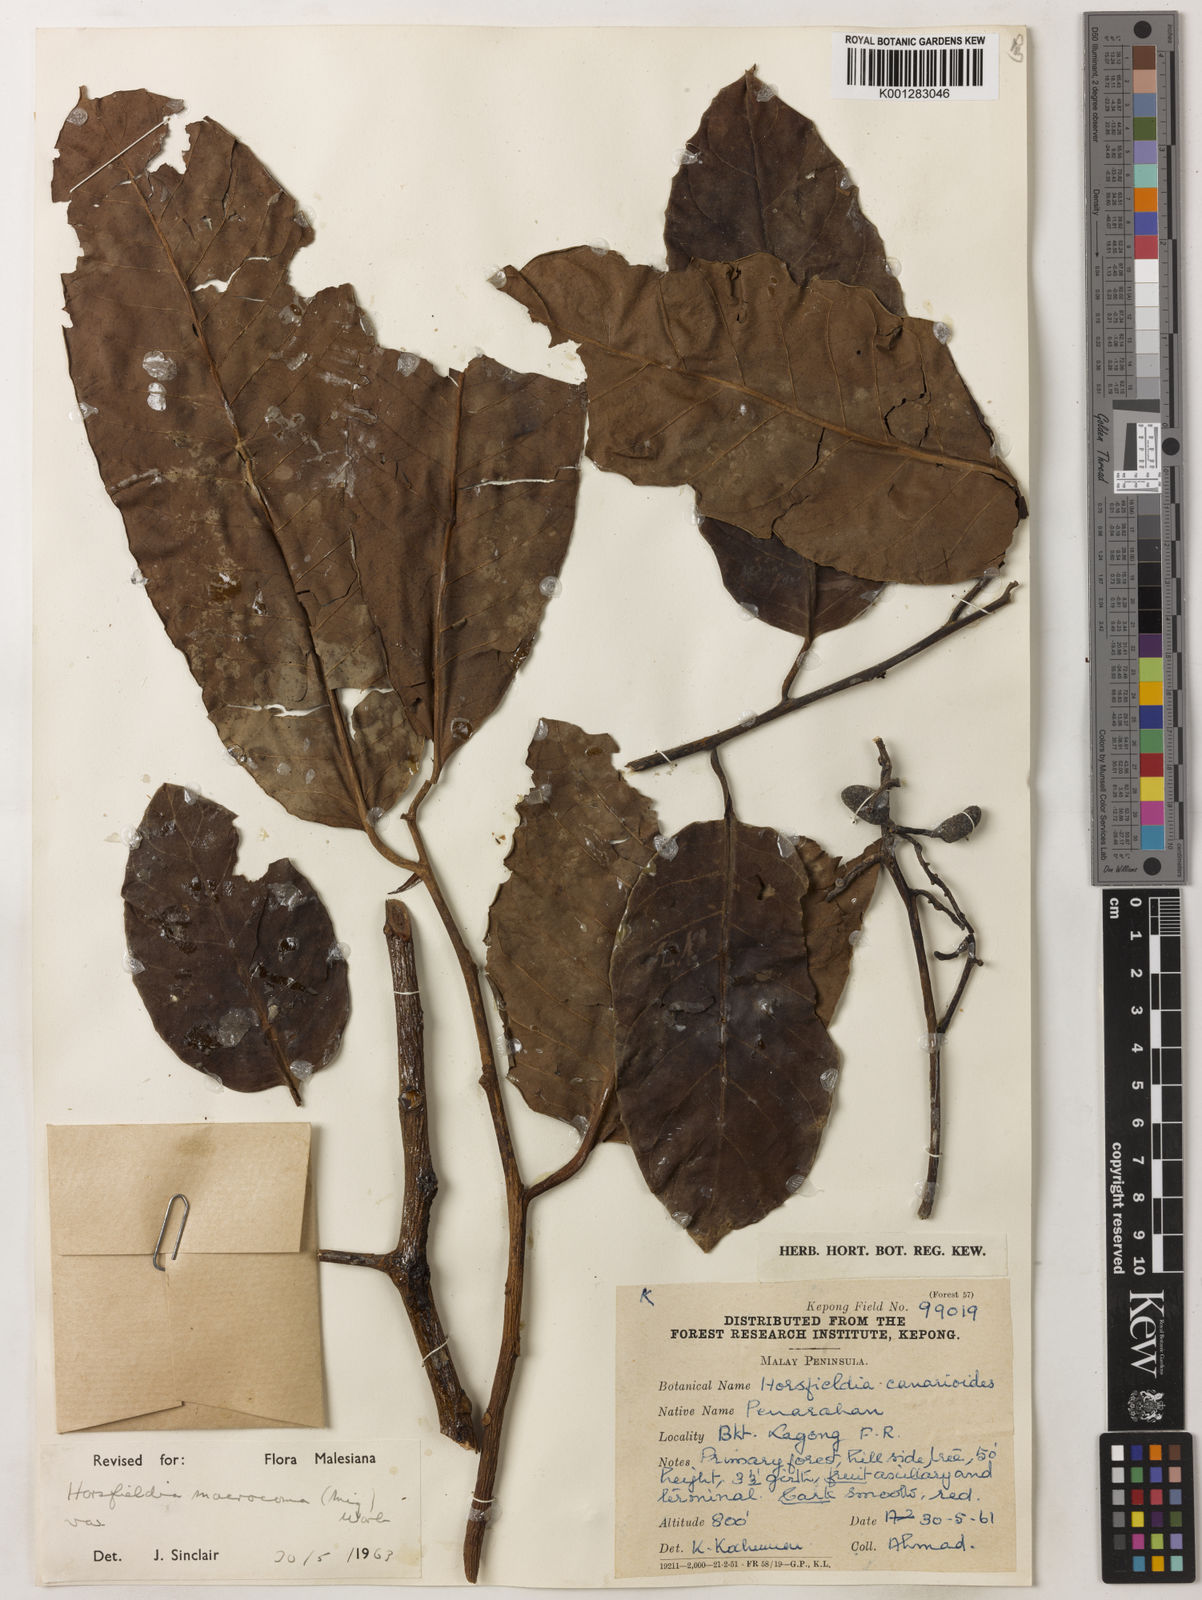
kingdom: Plantae
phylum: Tracheophyta
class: Magnoliopsida
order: Magnoliales
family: Myristicaceae
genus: Endocomia
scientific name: Endocomia canarioides
